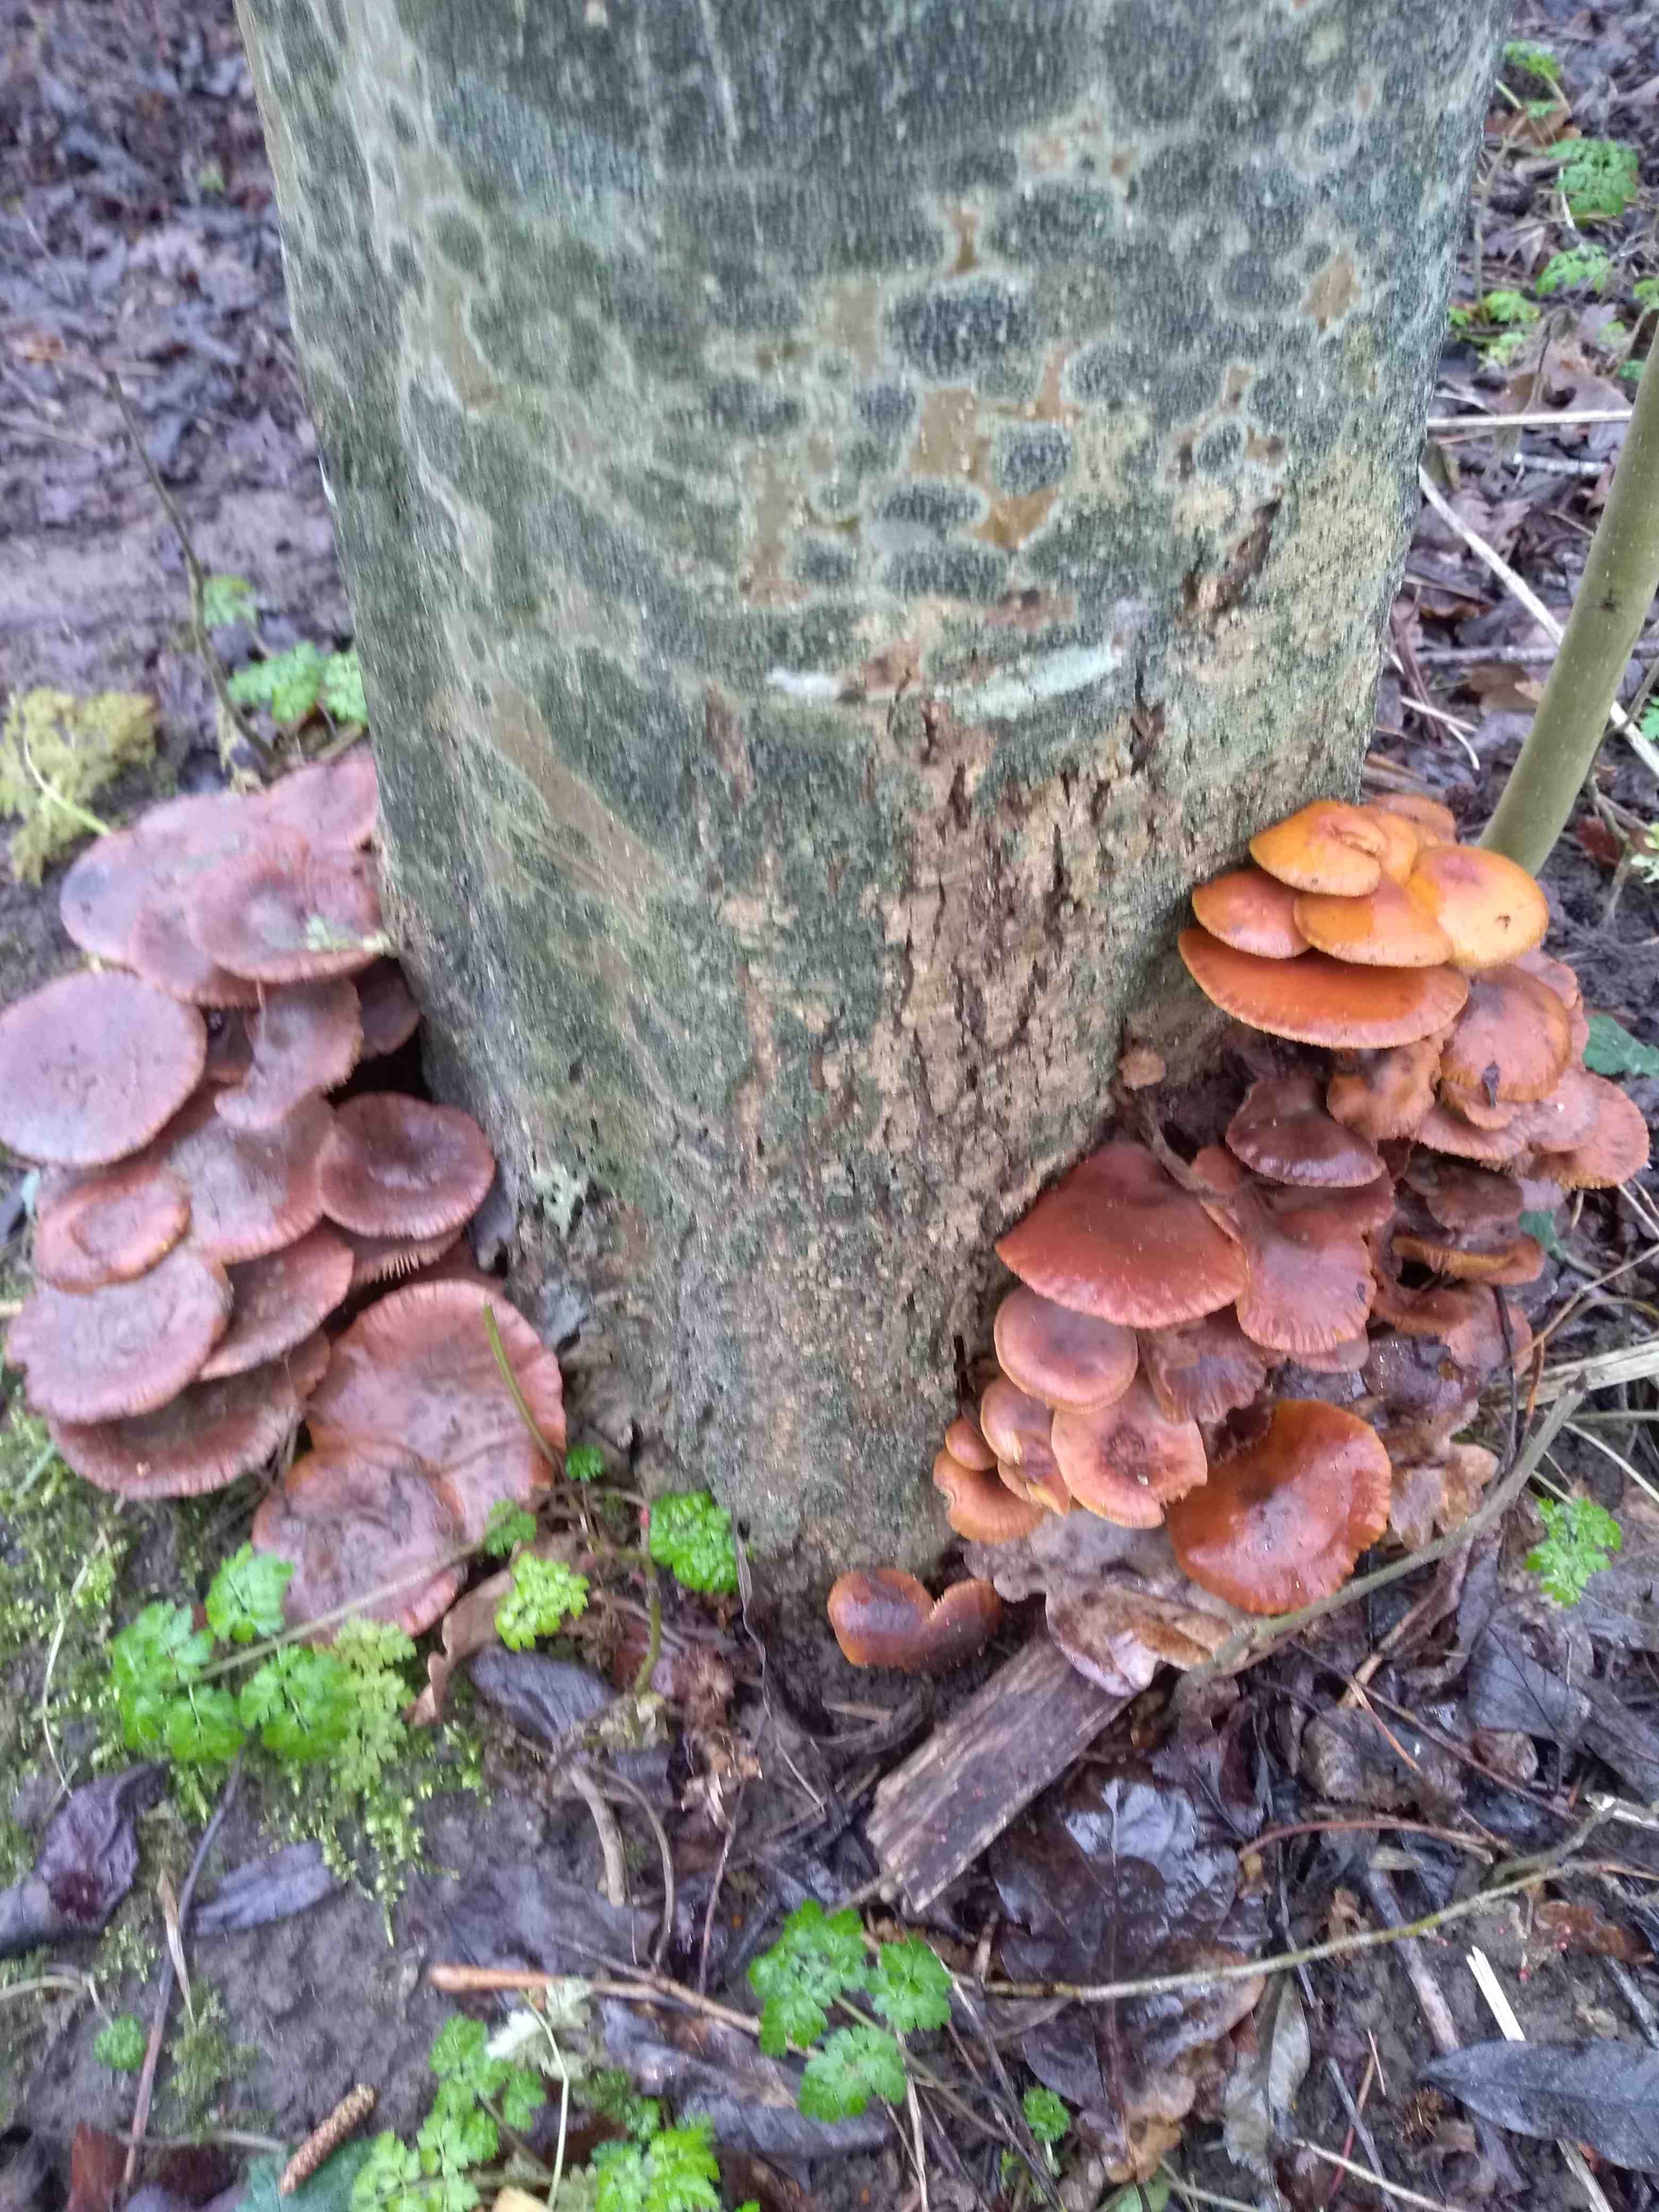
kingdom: Fungi
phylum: Basidiomycota
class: Agaricomycetes
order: Agaricales
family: Physalacriaceae
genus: Flammulina
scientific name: Flammulina velutipes
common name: gul fløjlsfod
